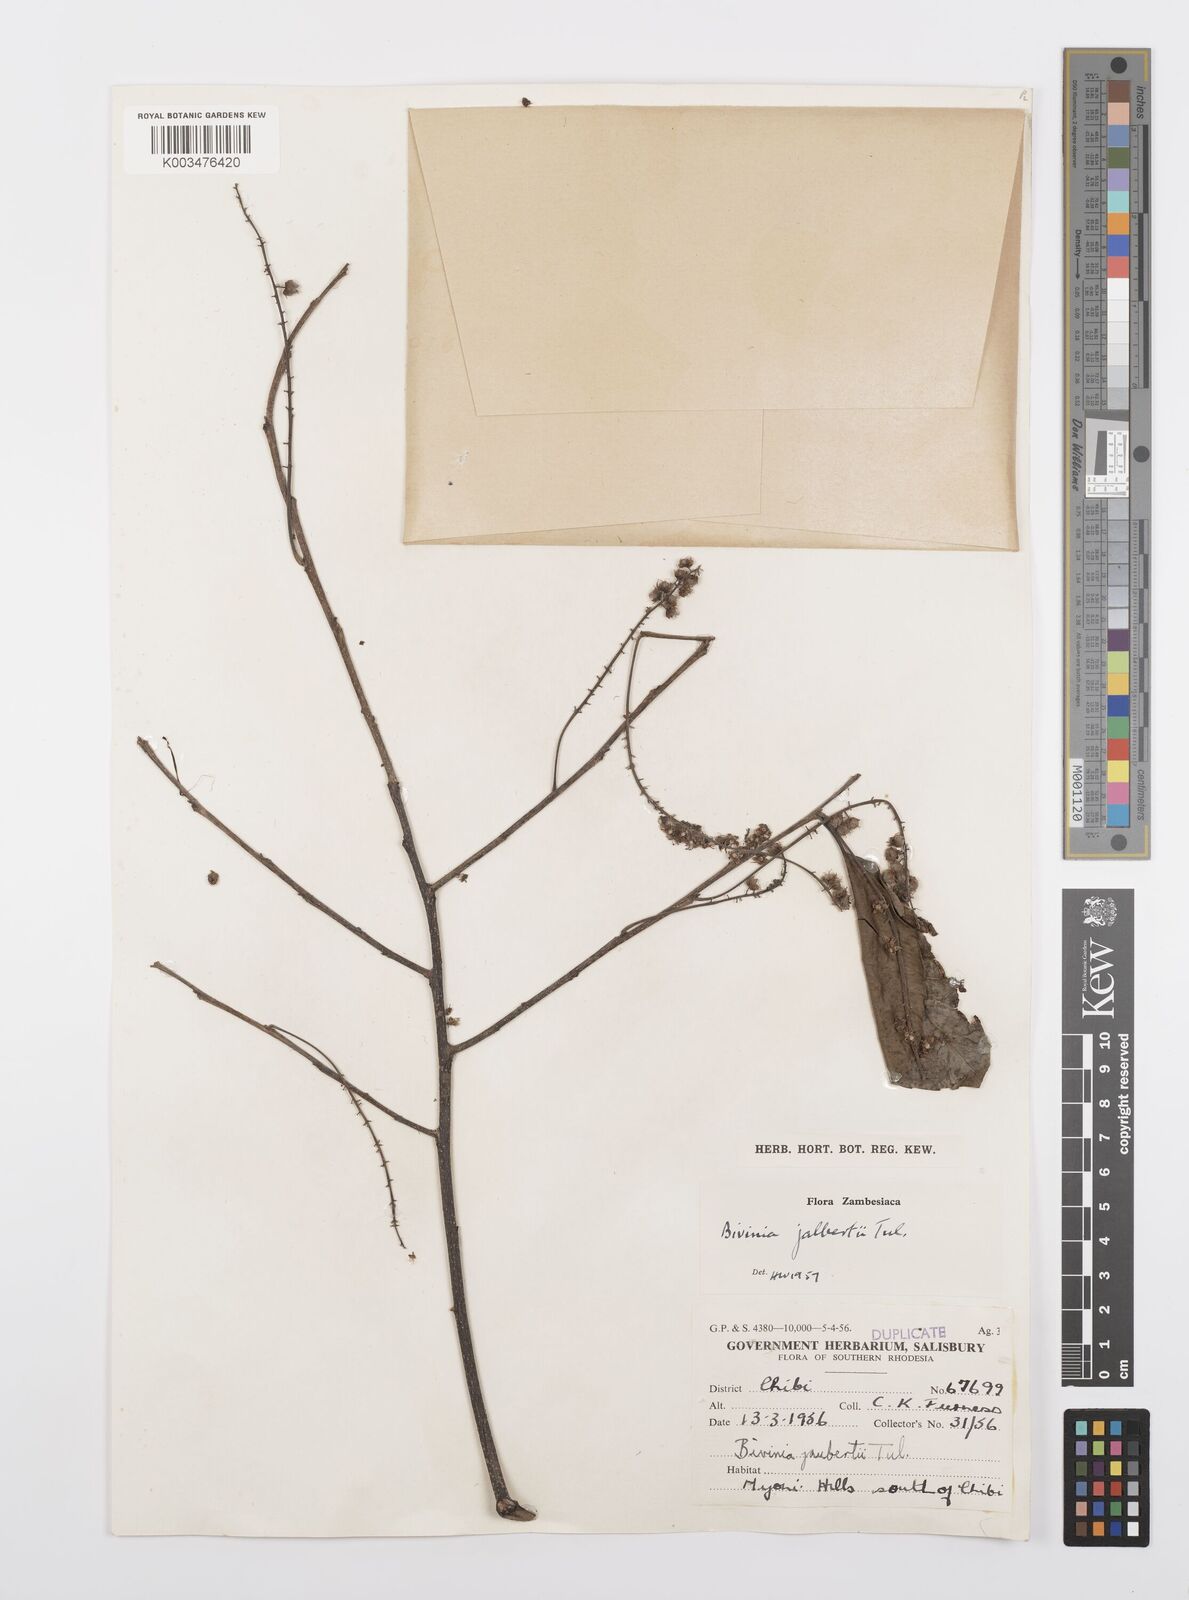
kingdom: Plantae
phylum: Tracheophyta
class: Magnoliopsida
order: Malpighiales
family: Salicaceae
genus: Bivinia
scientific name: Bivinia jalbertii
